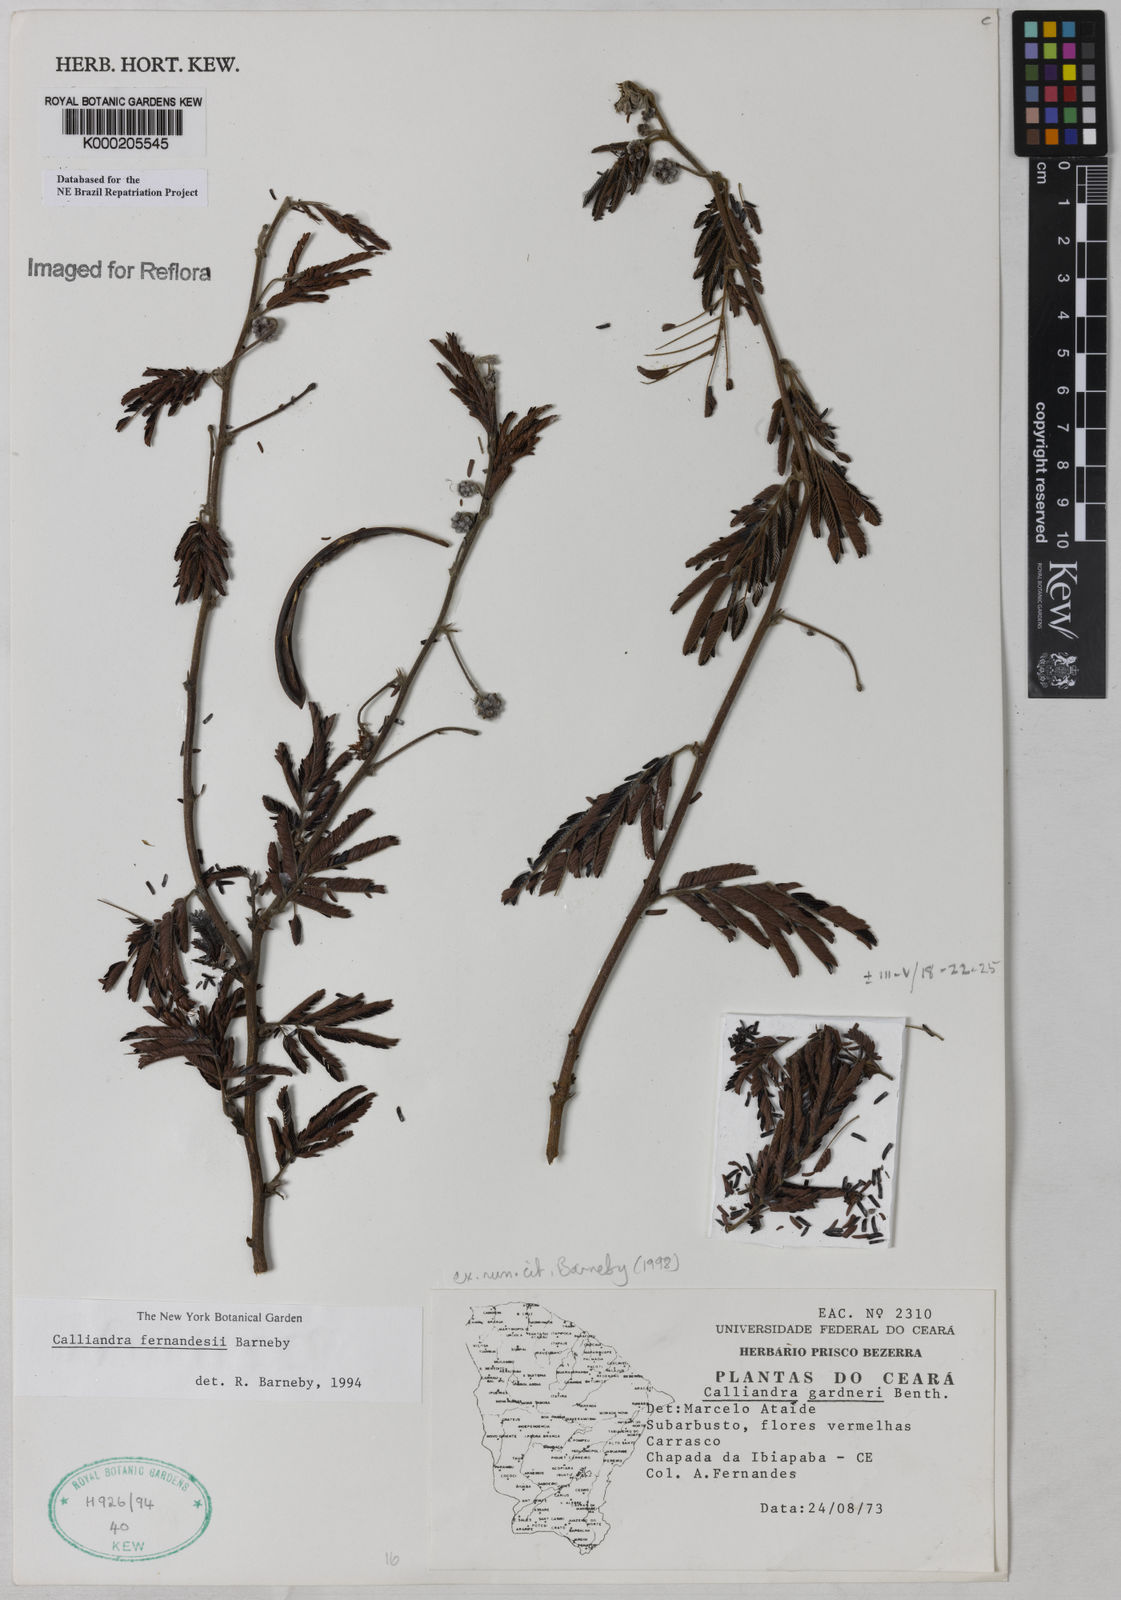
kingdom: Plantae
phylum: Tracheophyta
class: Magnoliopsida
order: Fabales
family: Fabaceae
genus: Calliandra
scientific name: Calliandra fernandesii
